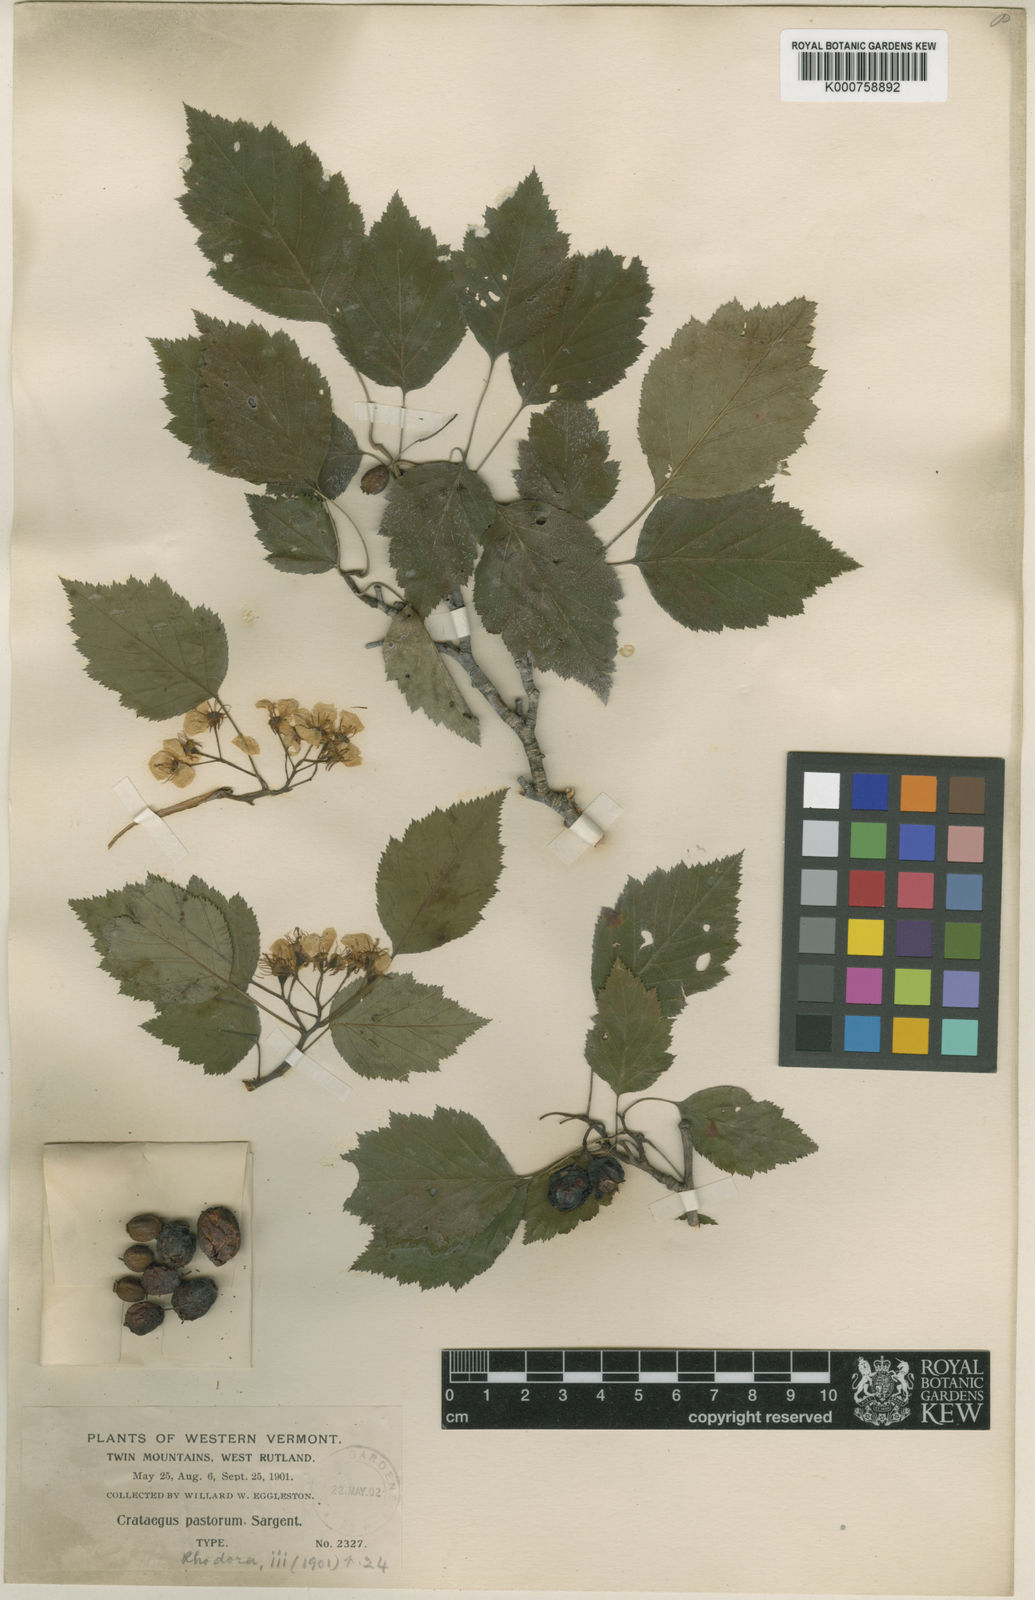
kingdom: Plantae
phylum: Tracheophyta
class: Magnoliopsida
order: Rosales
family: Rosaceae
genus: Crataegus
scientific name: Crataegus macrosperma
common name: Variable hawthorn
